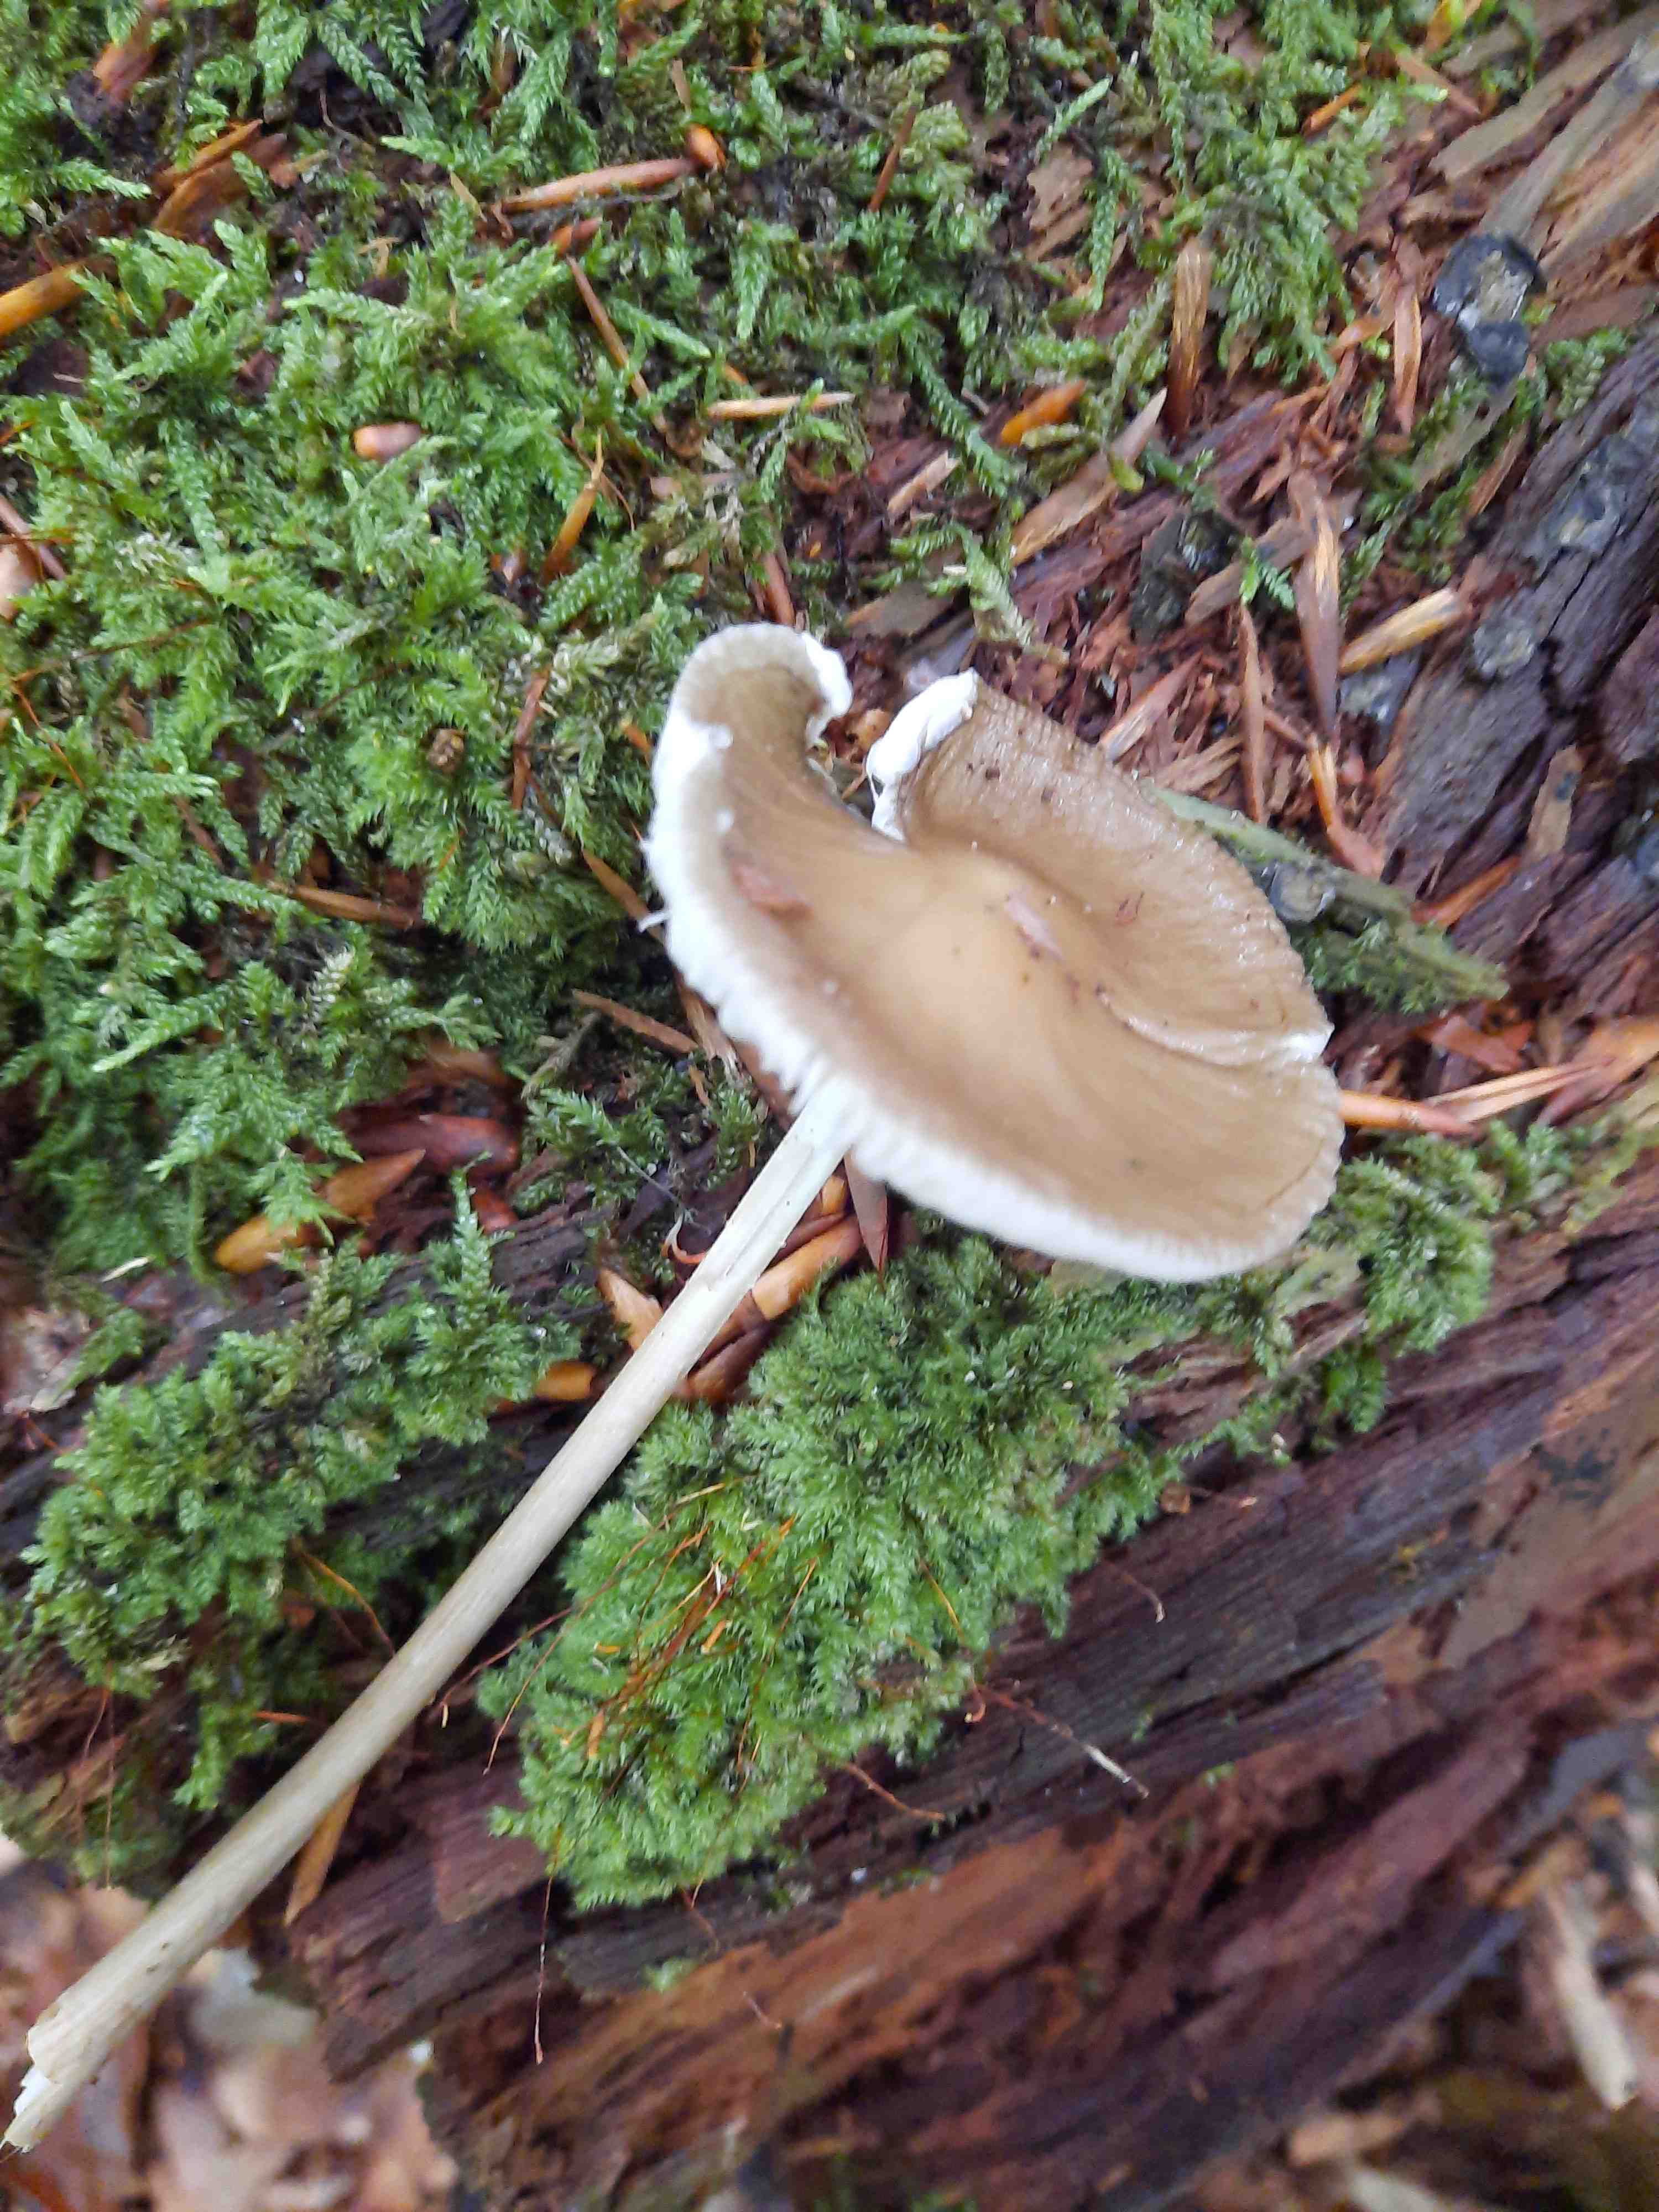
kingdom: Fungi
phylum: Basidiomycota
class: Agaricomycetes
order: Agaricales
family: Physalacriaceae
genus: Hymenopellis
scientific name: Hymenopellis radicata
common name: almindelig pælerodshat
